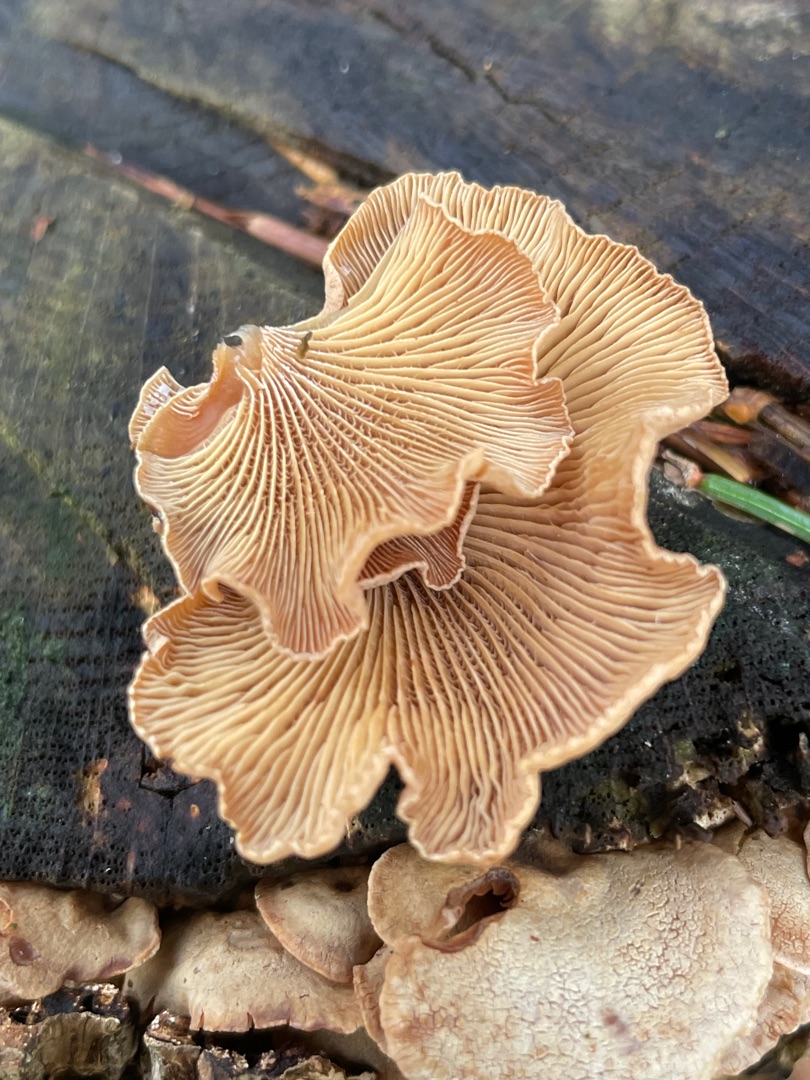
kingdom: Fungi
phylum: Basidiomycota
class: Agaricomycetes
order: Agaricales
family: Mycenaceae
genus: Panellus
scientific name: Panellus stipticus
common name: Kliddet epaulethat
